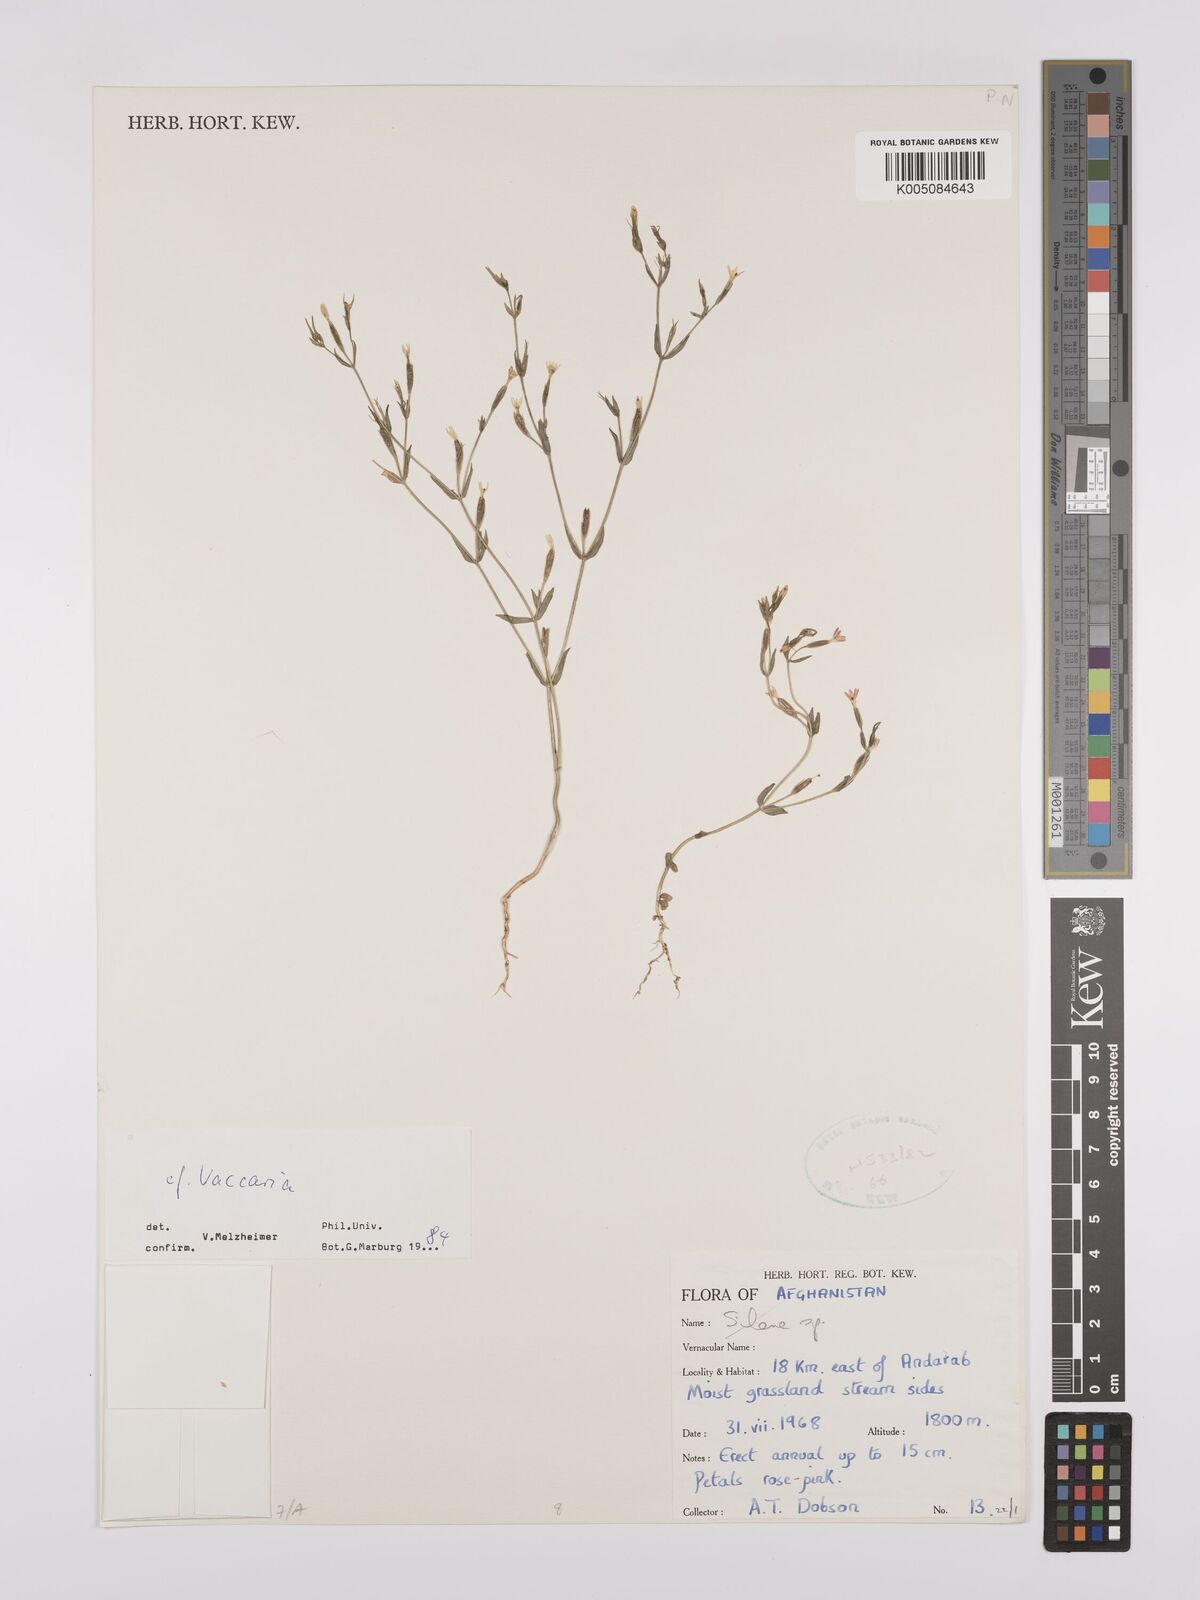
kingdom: Plantae
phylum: Tracheophyta
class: Magnoliopsida
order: Caryophyllales
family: Caryophyllaceae
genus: Vaccaria
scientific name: Vaccaria
